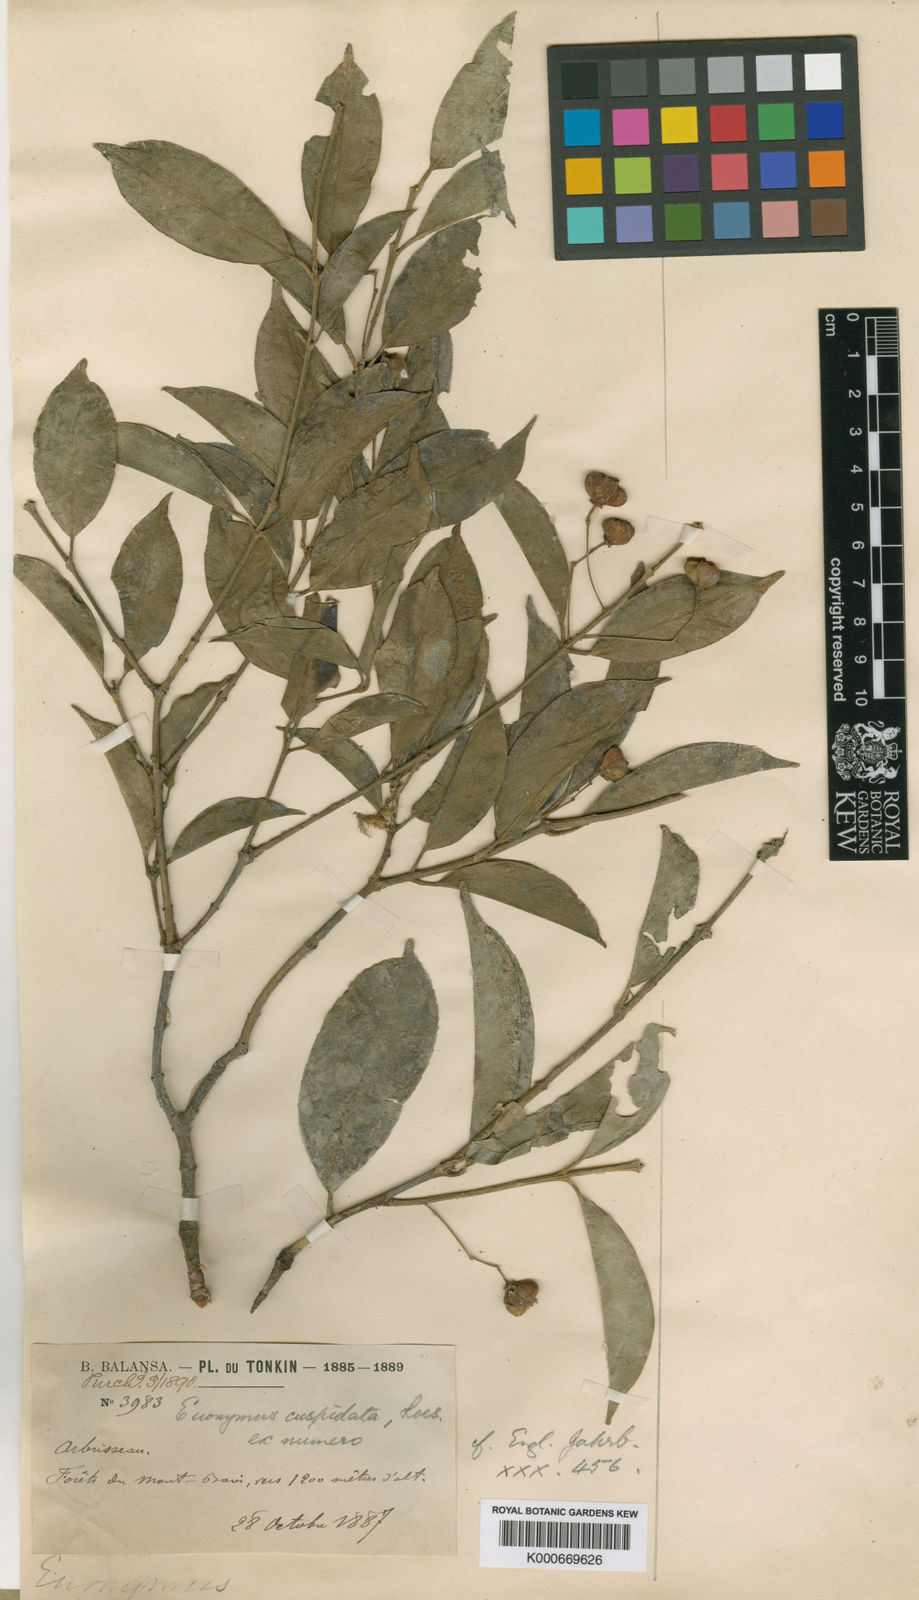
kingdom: Plantae
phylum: Tracheophyta
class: Magnoliopsida
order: Celastrales
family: Celastraceae
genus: Euonymus
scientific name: Euonymus cochinchinensis
